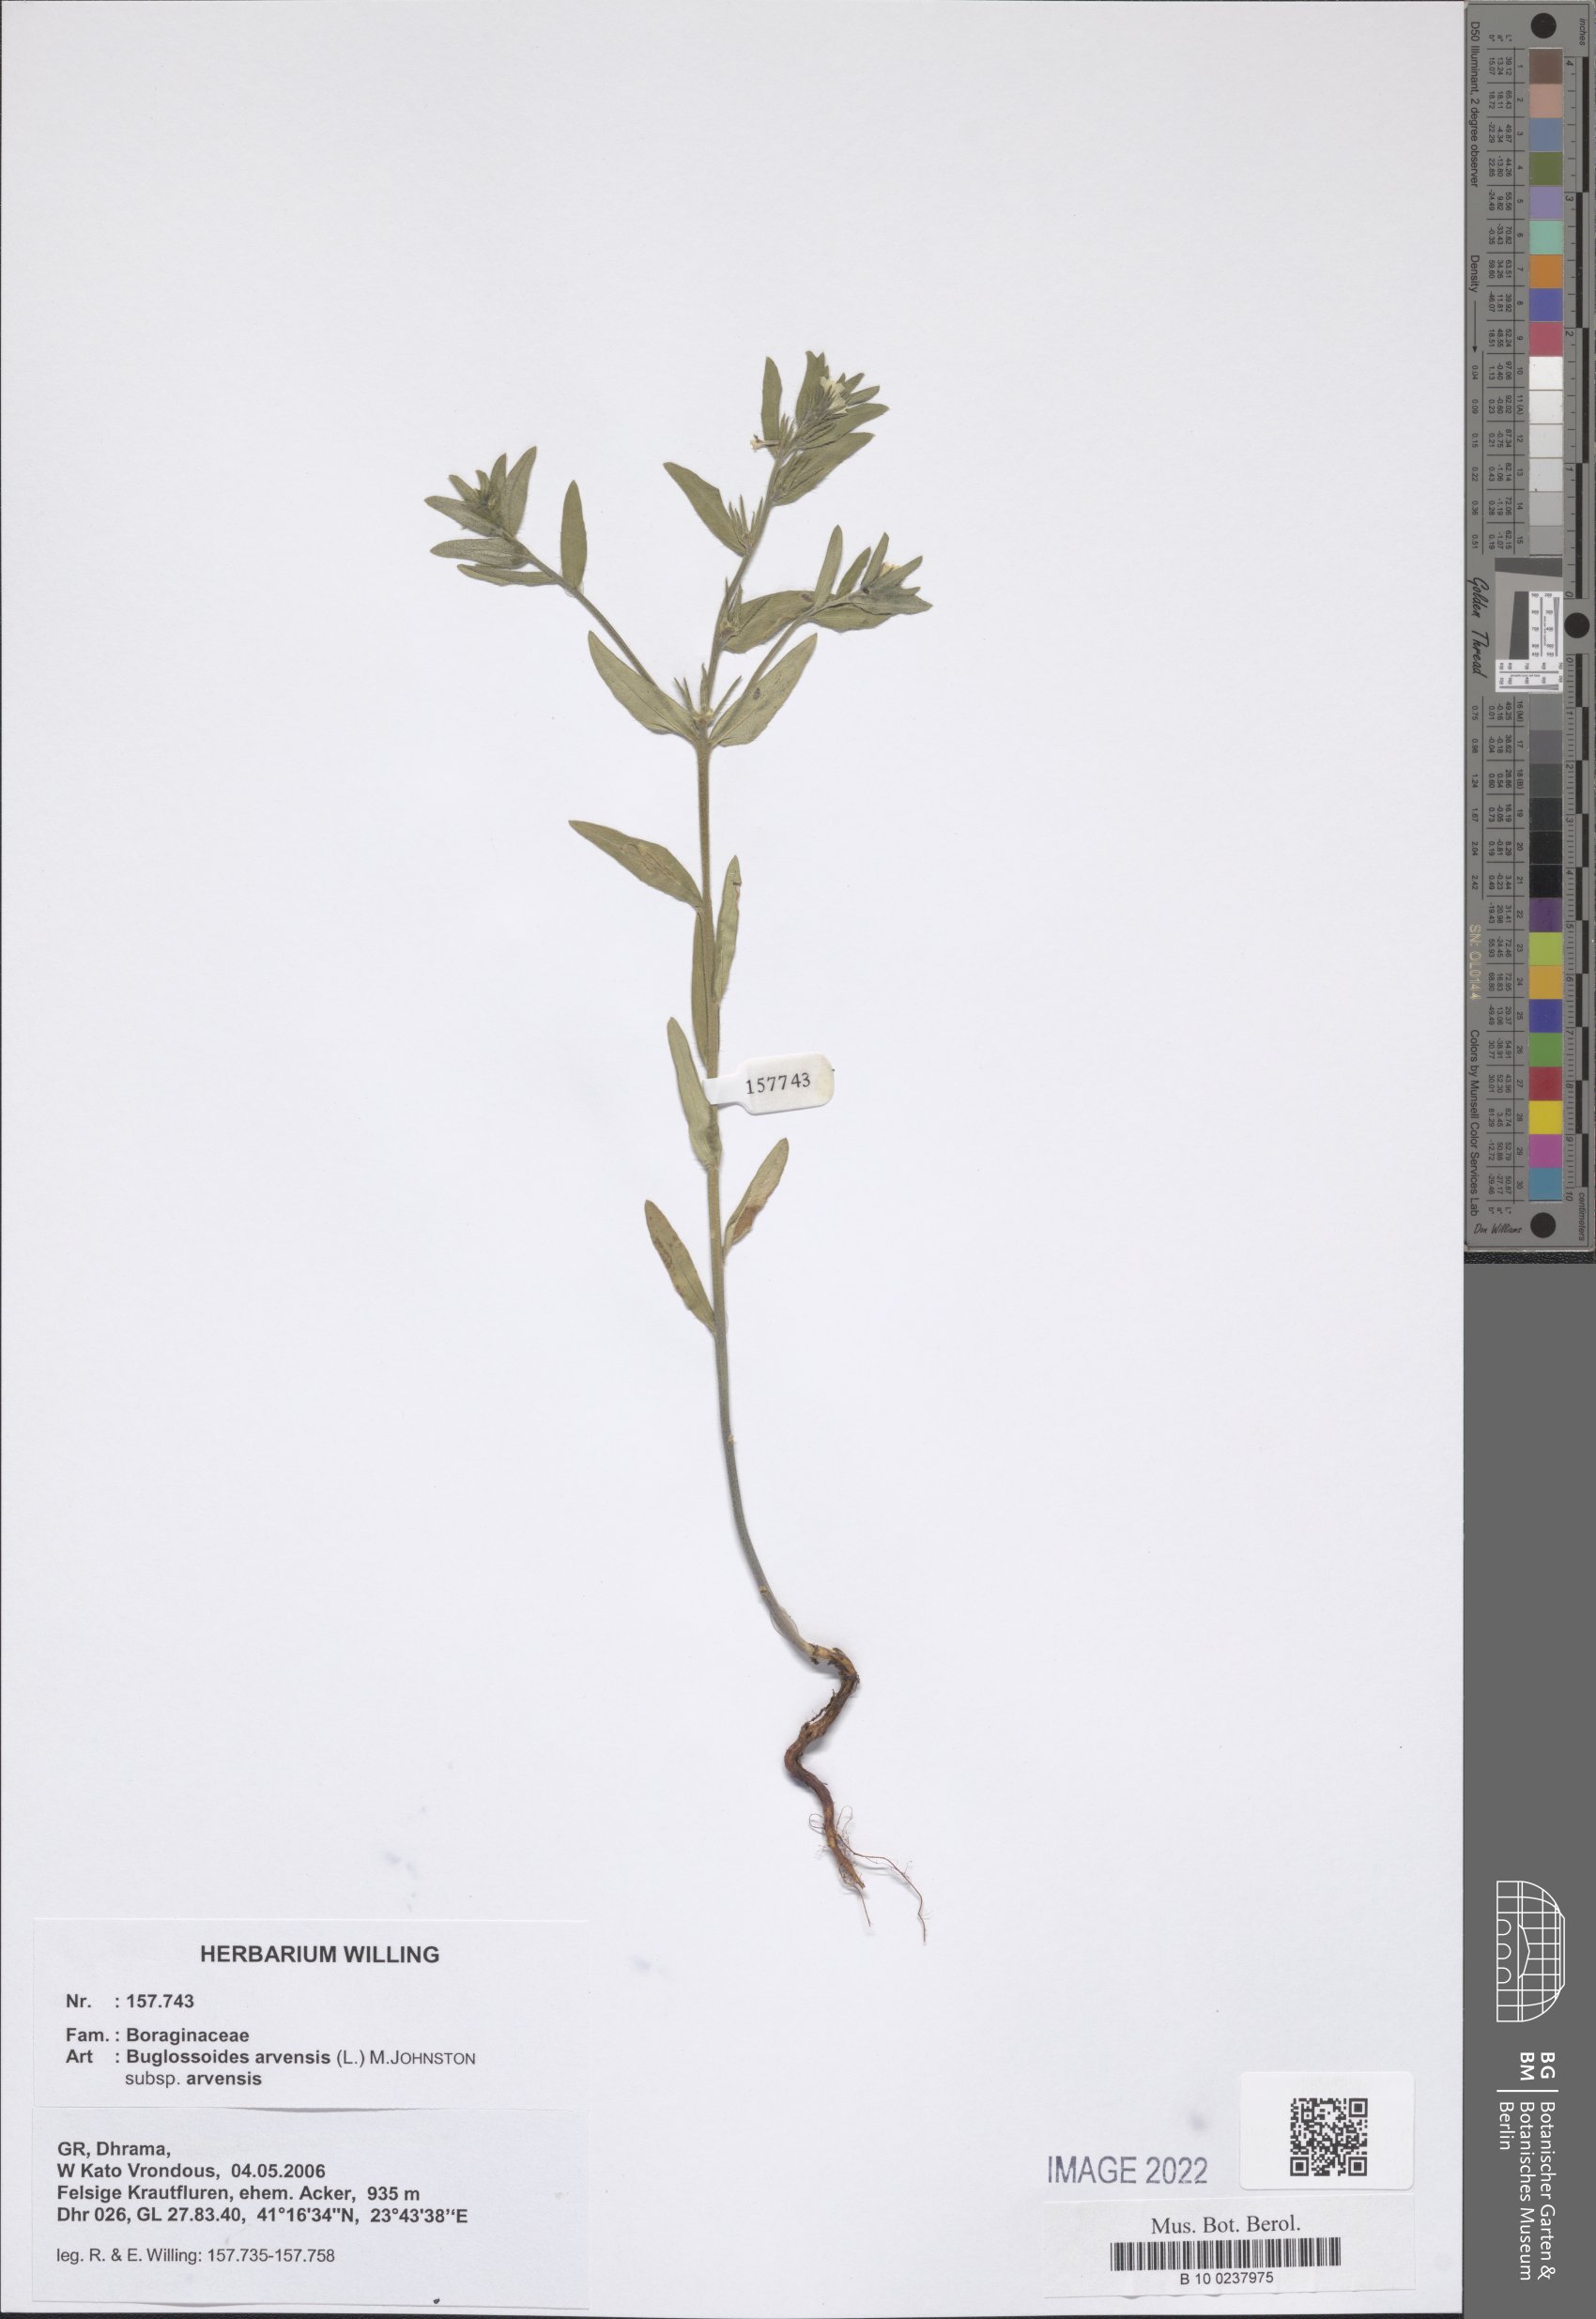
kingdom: Plantae
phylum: Tracheophyta
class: Magnoliopsida
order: Boraginales
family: Boraginaceae
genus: Buglossoides
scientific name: Buglossoides arvensis
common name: Corn gromwell
